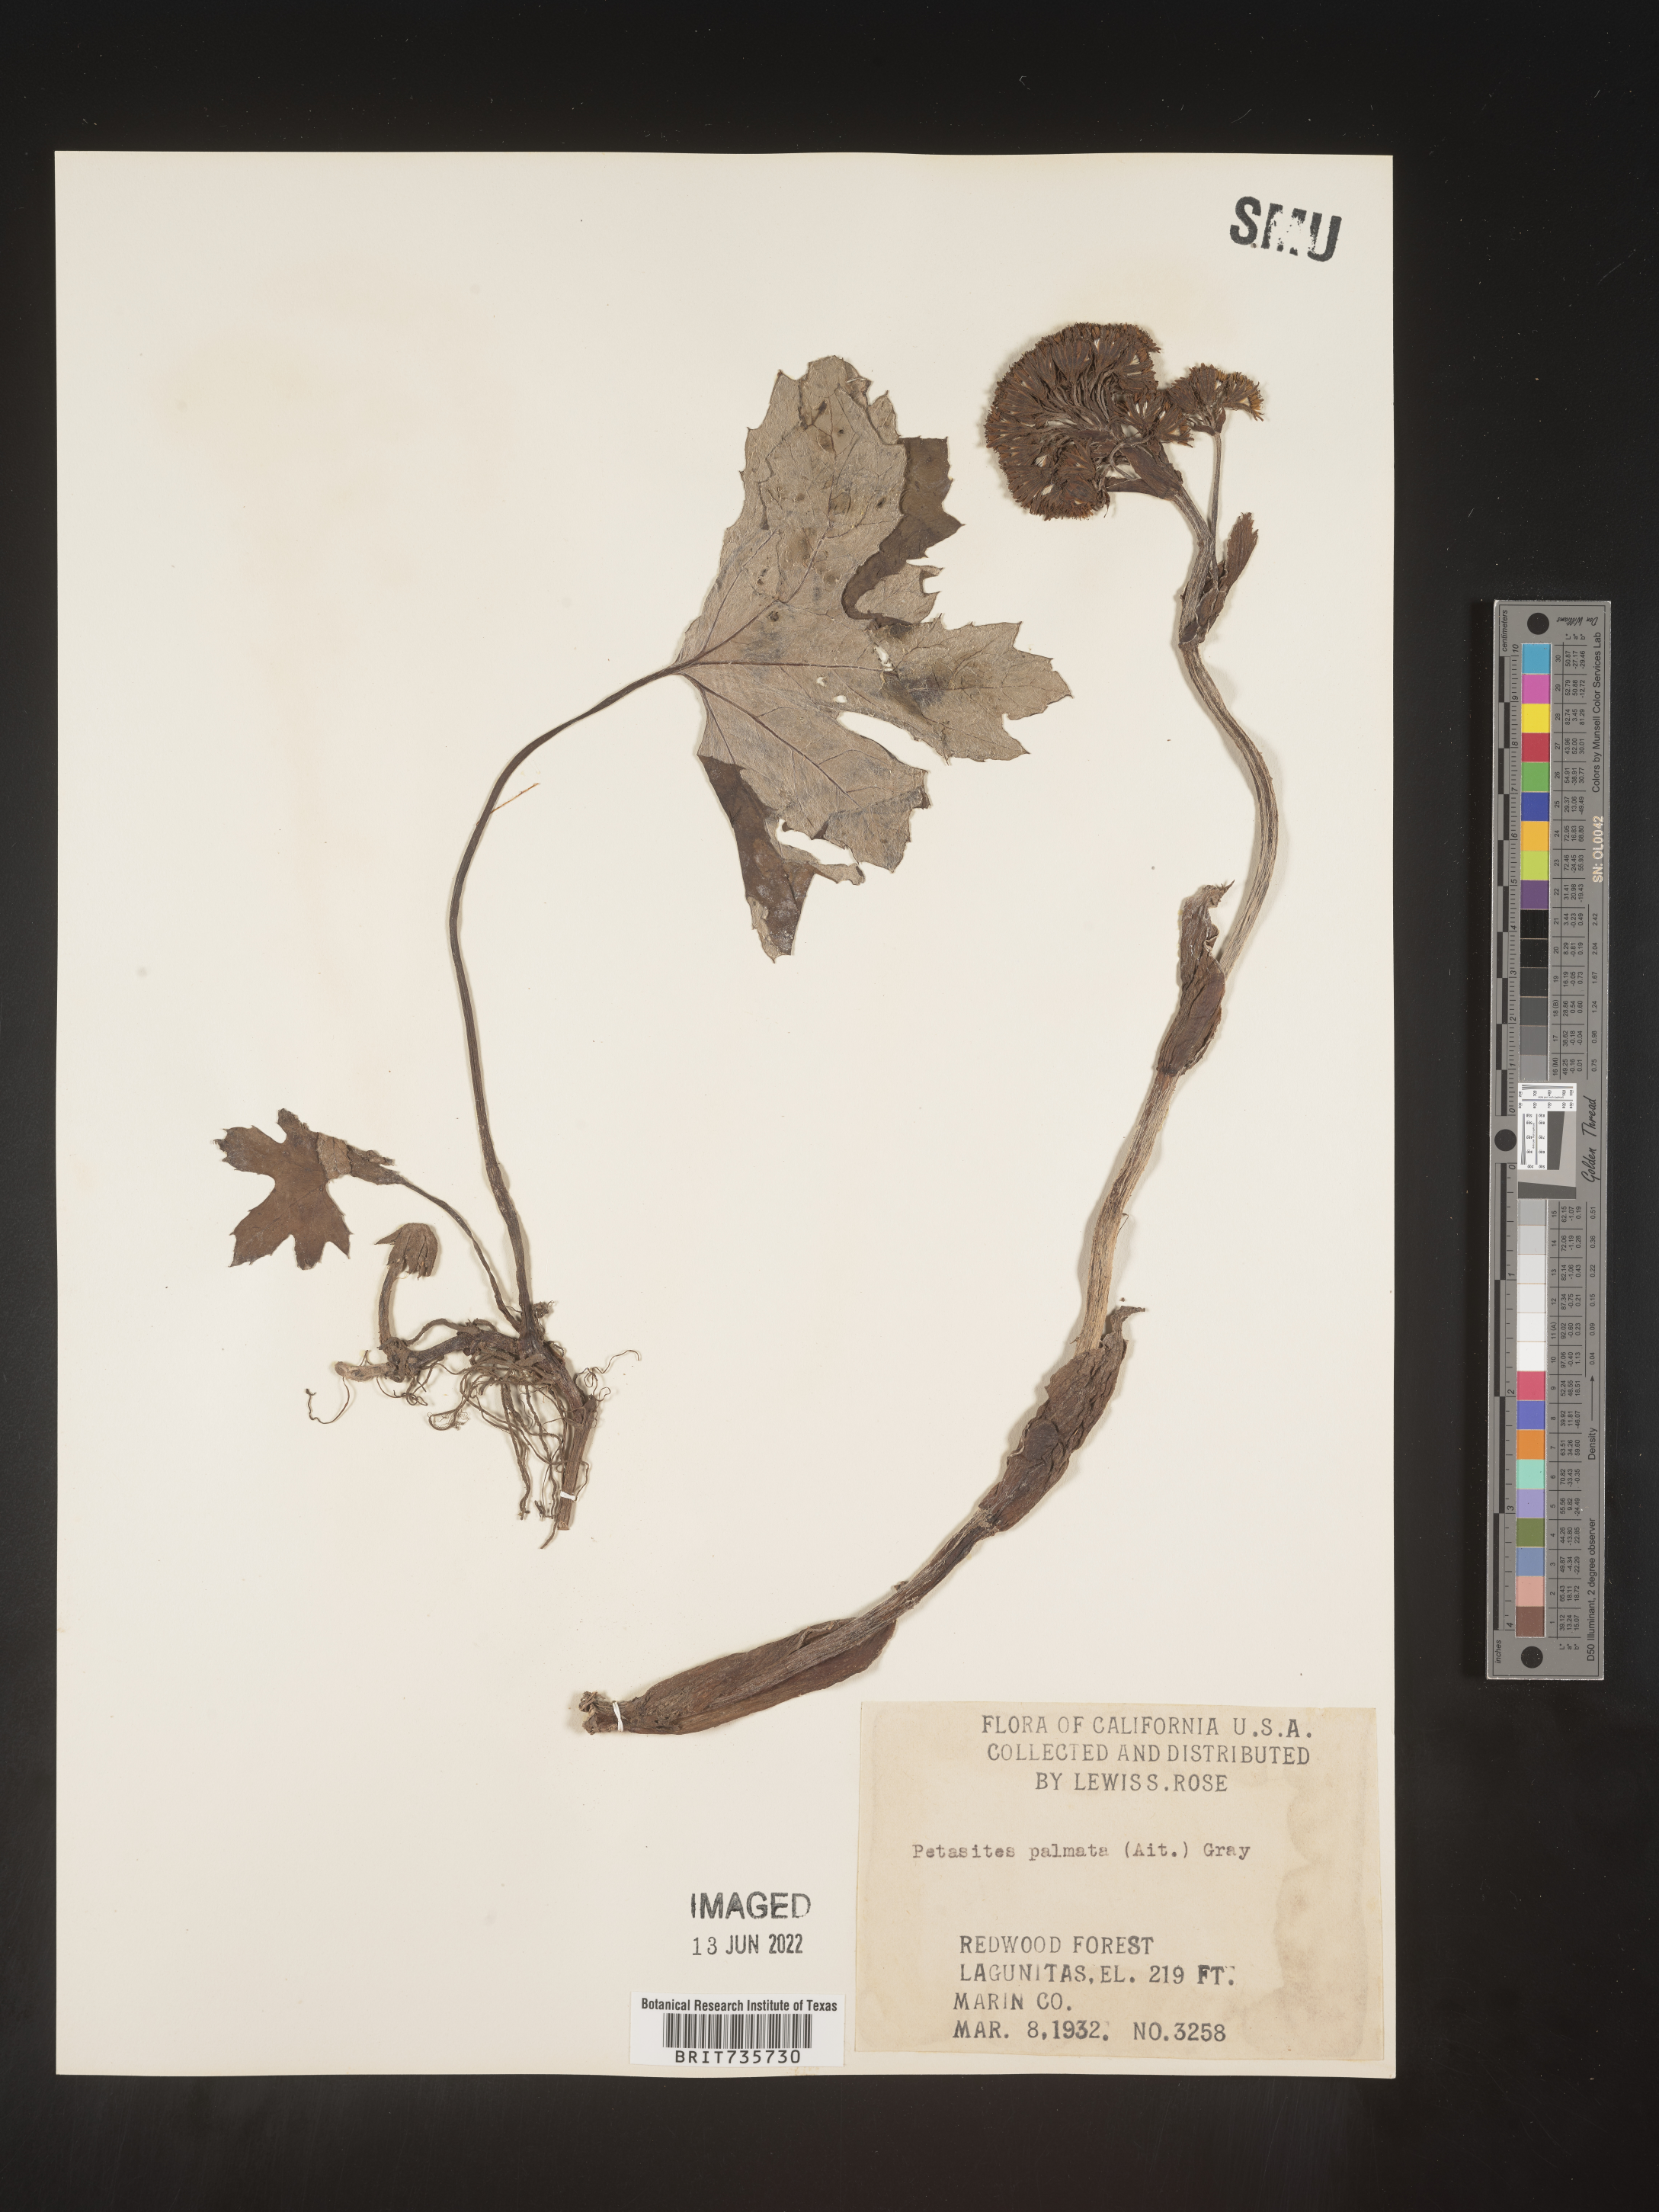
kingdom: Plantae
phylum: Tracheophyta
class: Magnoliopsida
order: Asterales
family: Asteraceae
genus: Petasites
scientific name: Petasites frigidus
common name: Arctic butterbur
